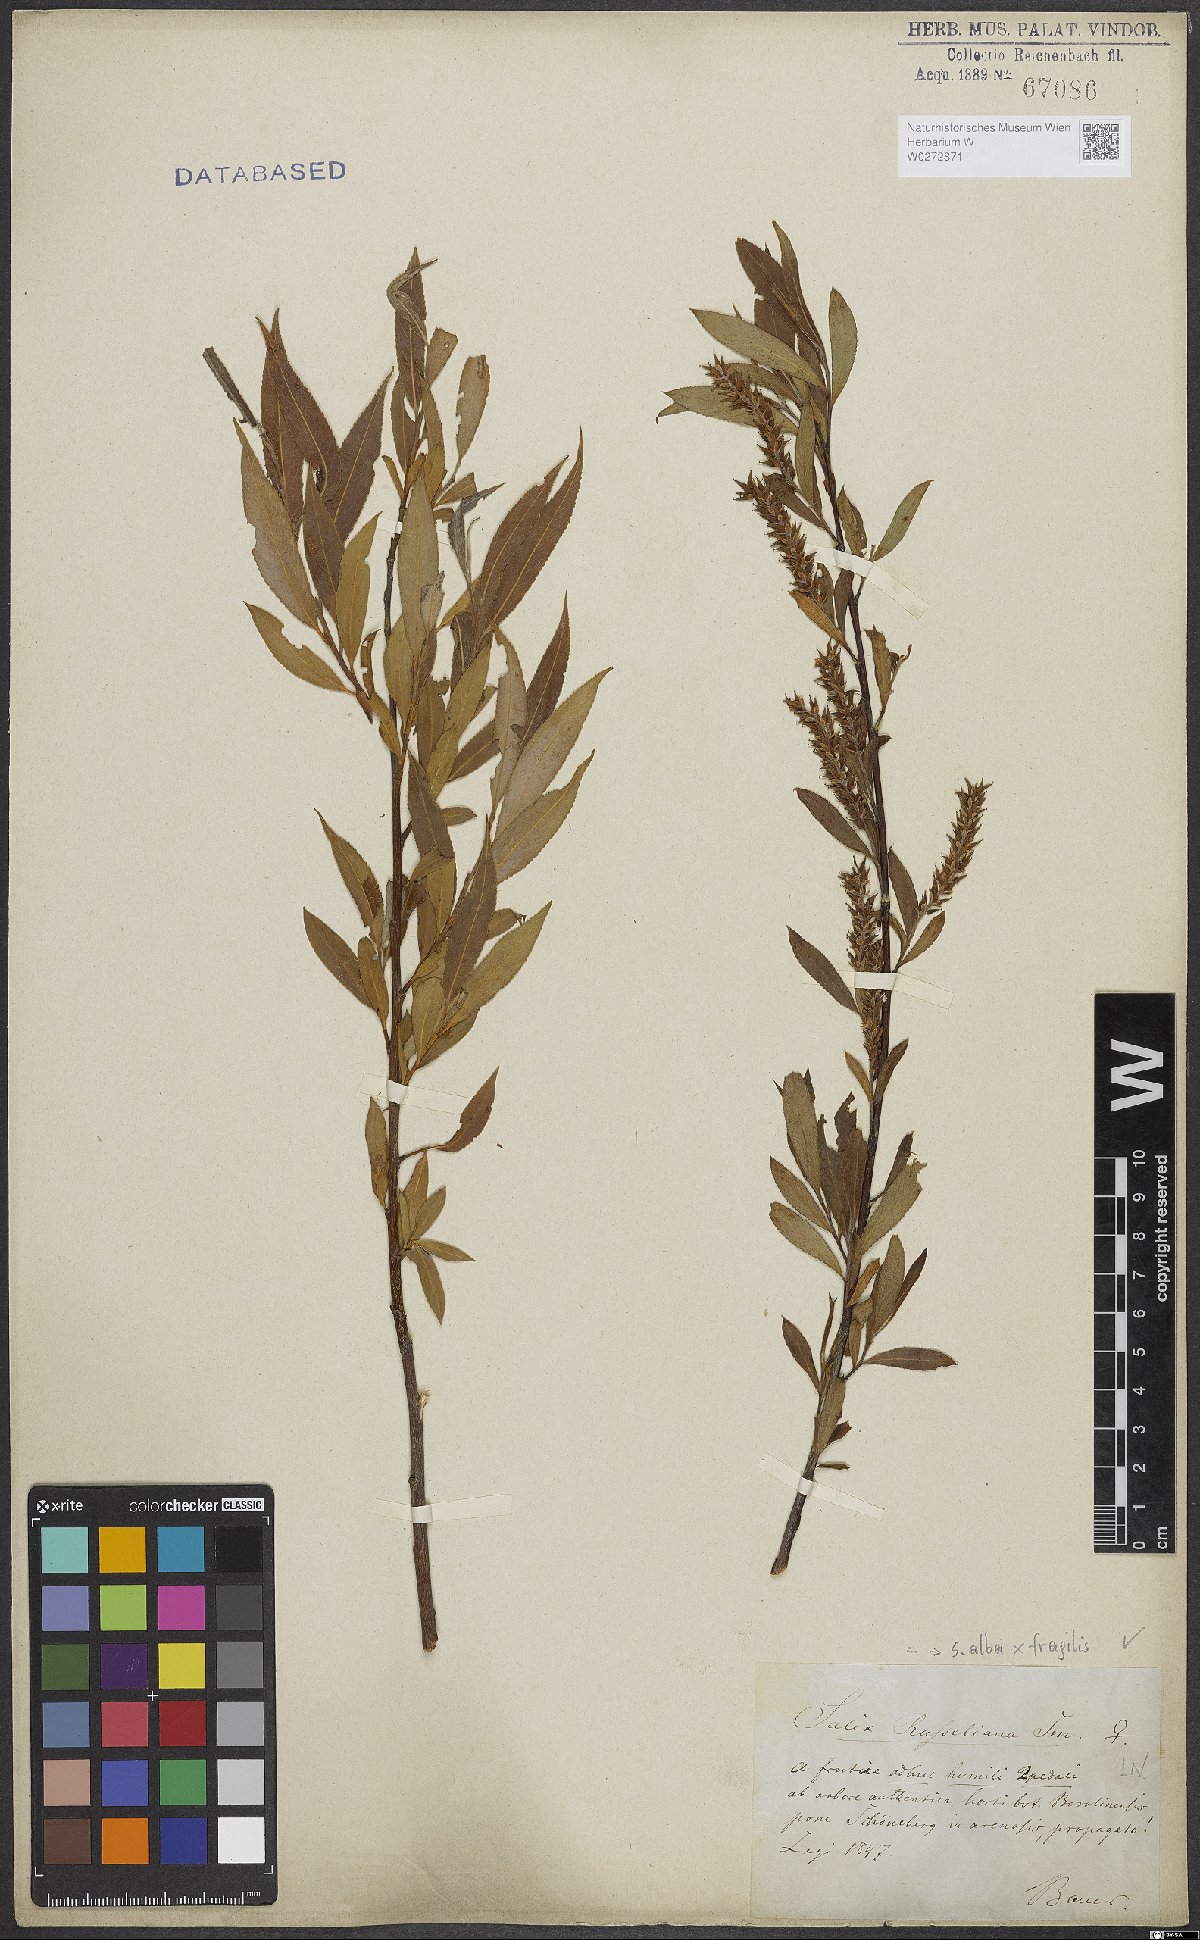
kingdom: Plantae
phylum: Tracheophyta
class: Magnoliopsida
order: Malpighiales
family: Salicaceae
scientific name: Salicaceae
